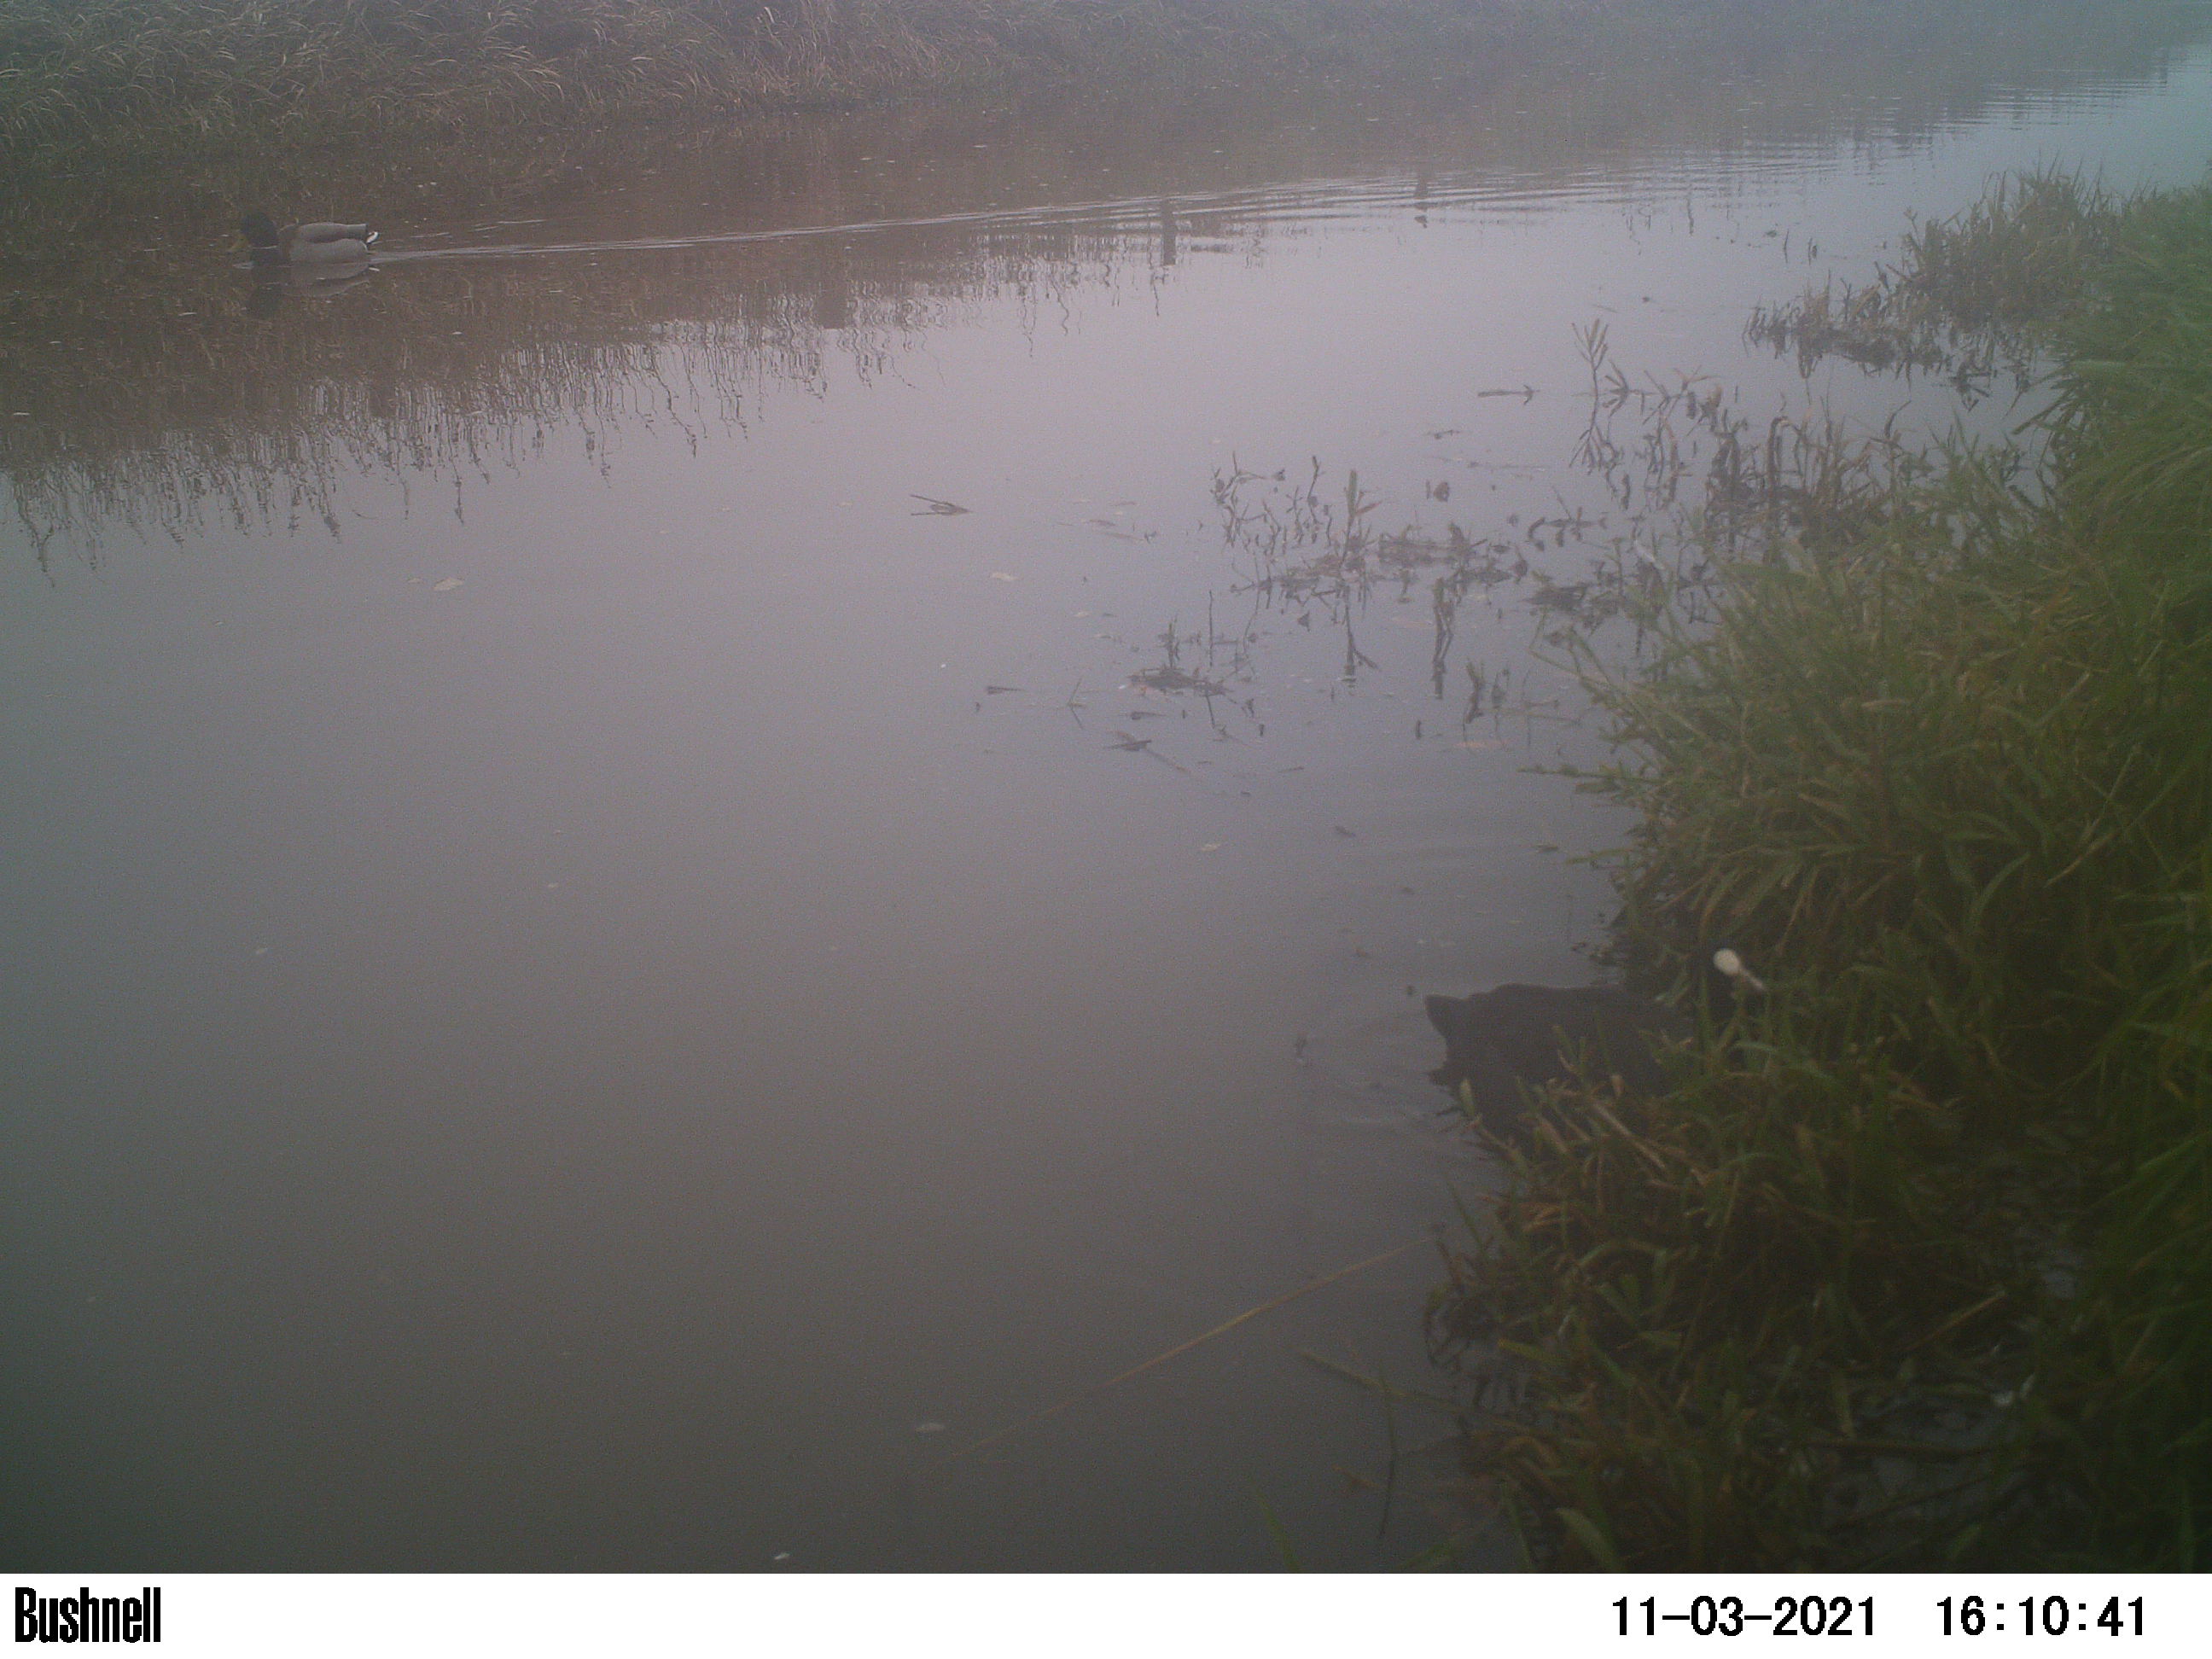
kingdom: Animalia
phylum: Chordata
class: Aves
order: Gruiformes
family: Rallidae
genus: Fulica
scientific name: Fulica atra
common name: Eurasian coot
